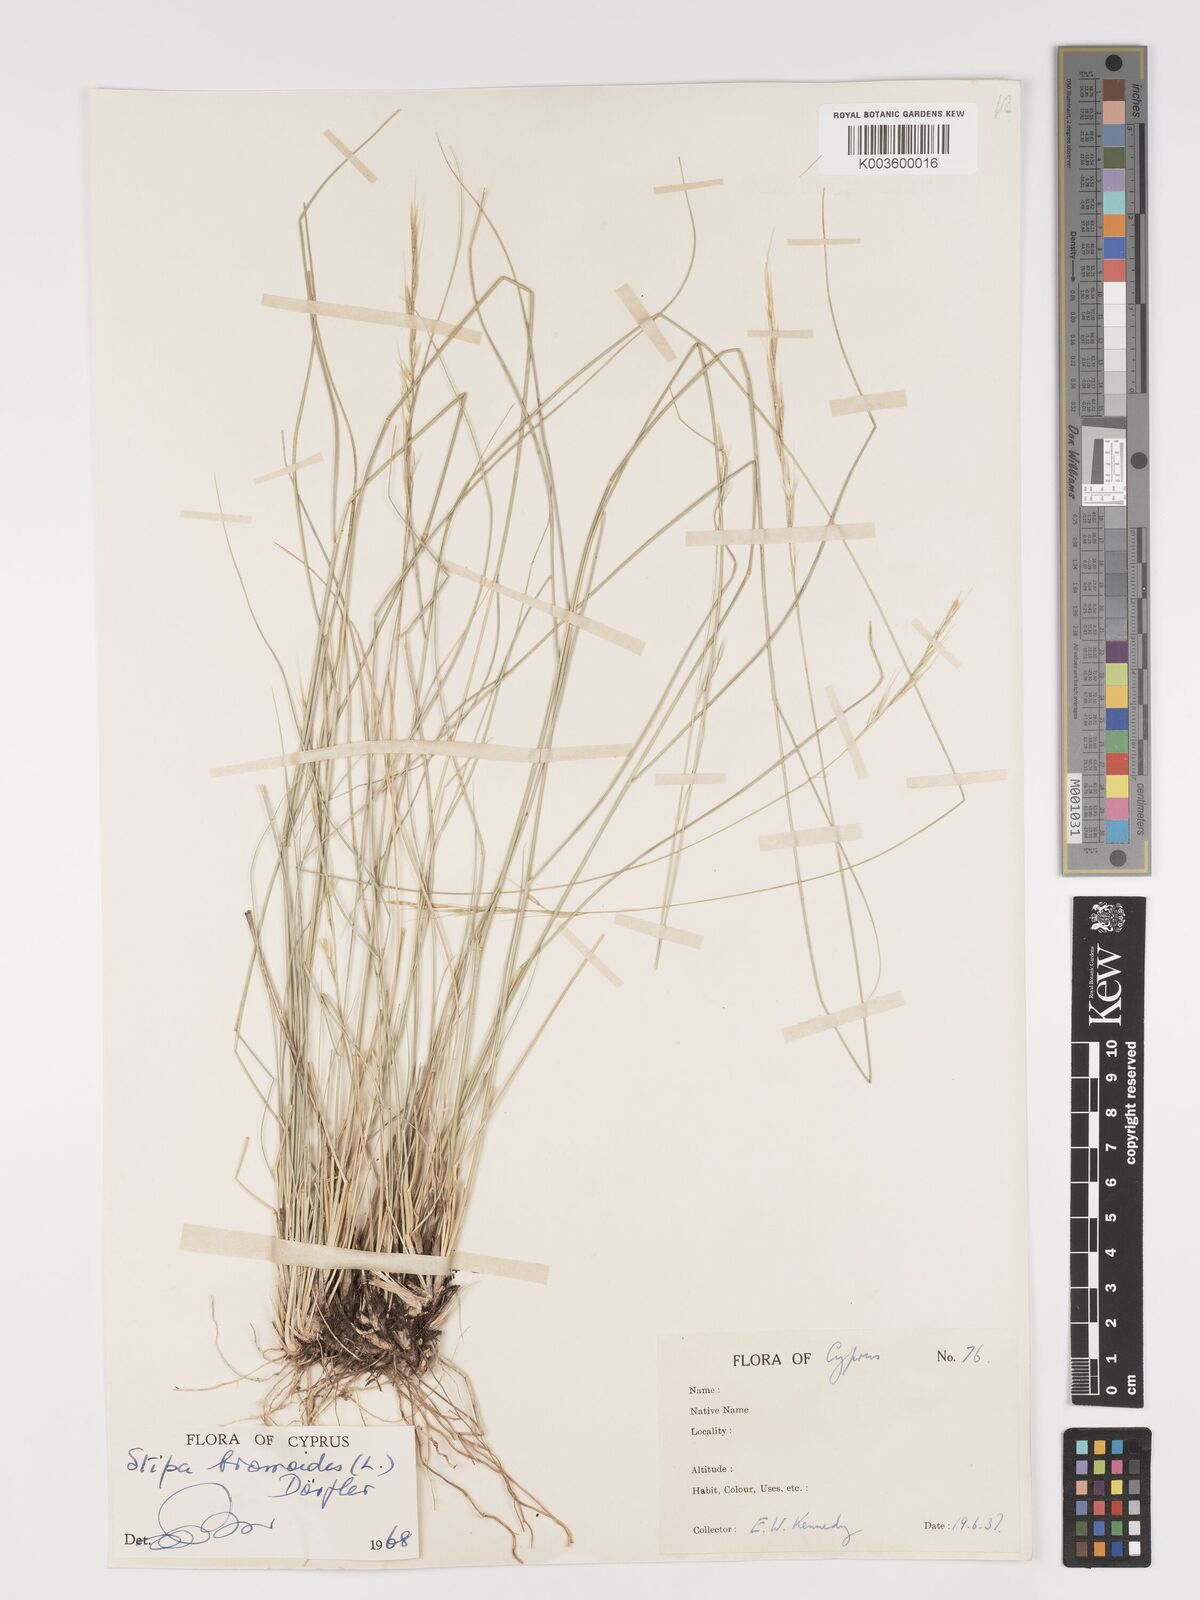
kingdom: Plantae
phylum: Tracheophyta
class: Liliopsida
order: Poales
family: Poaceae
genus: Achnatherum
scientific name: Achnatherum bromoides
